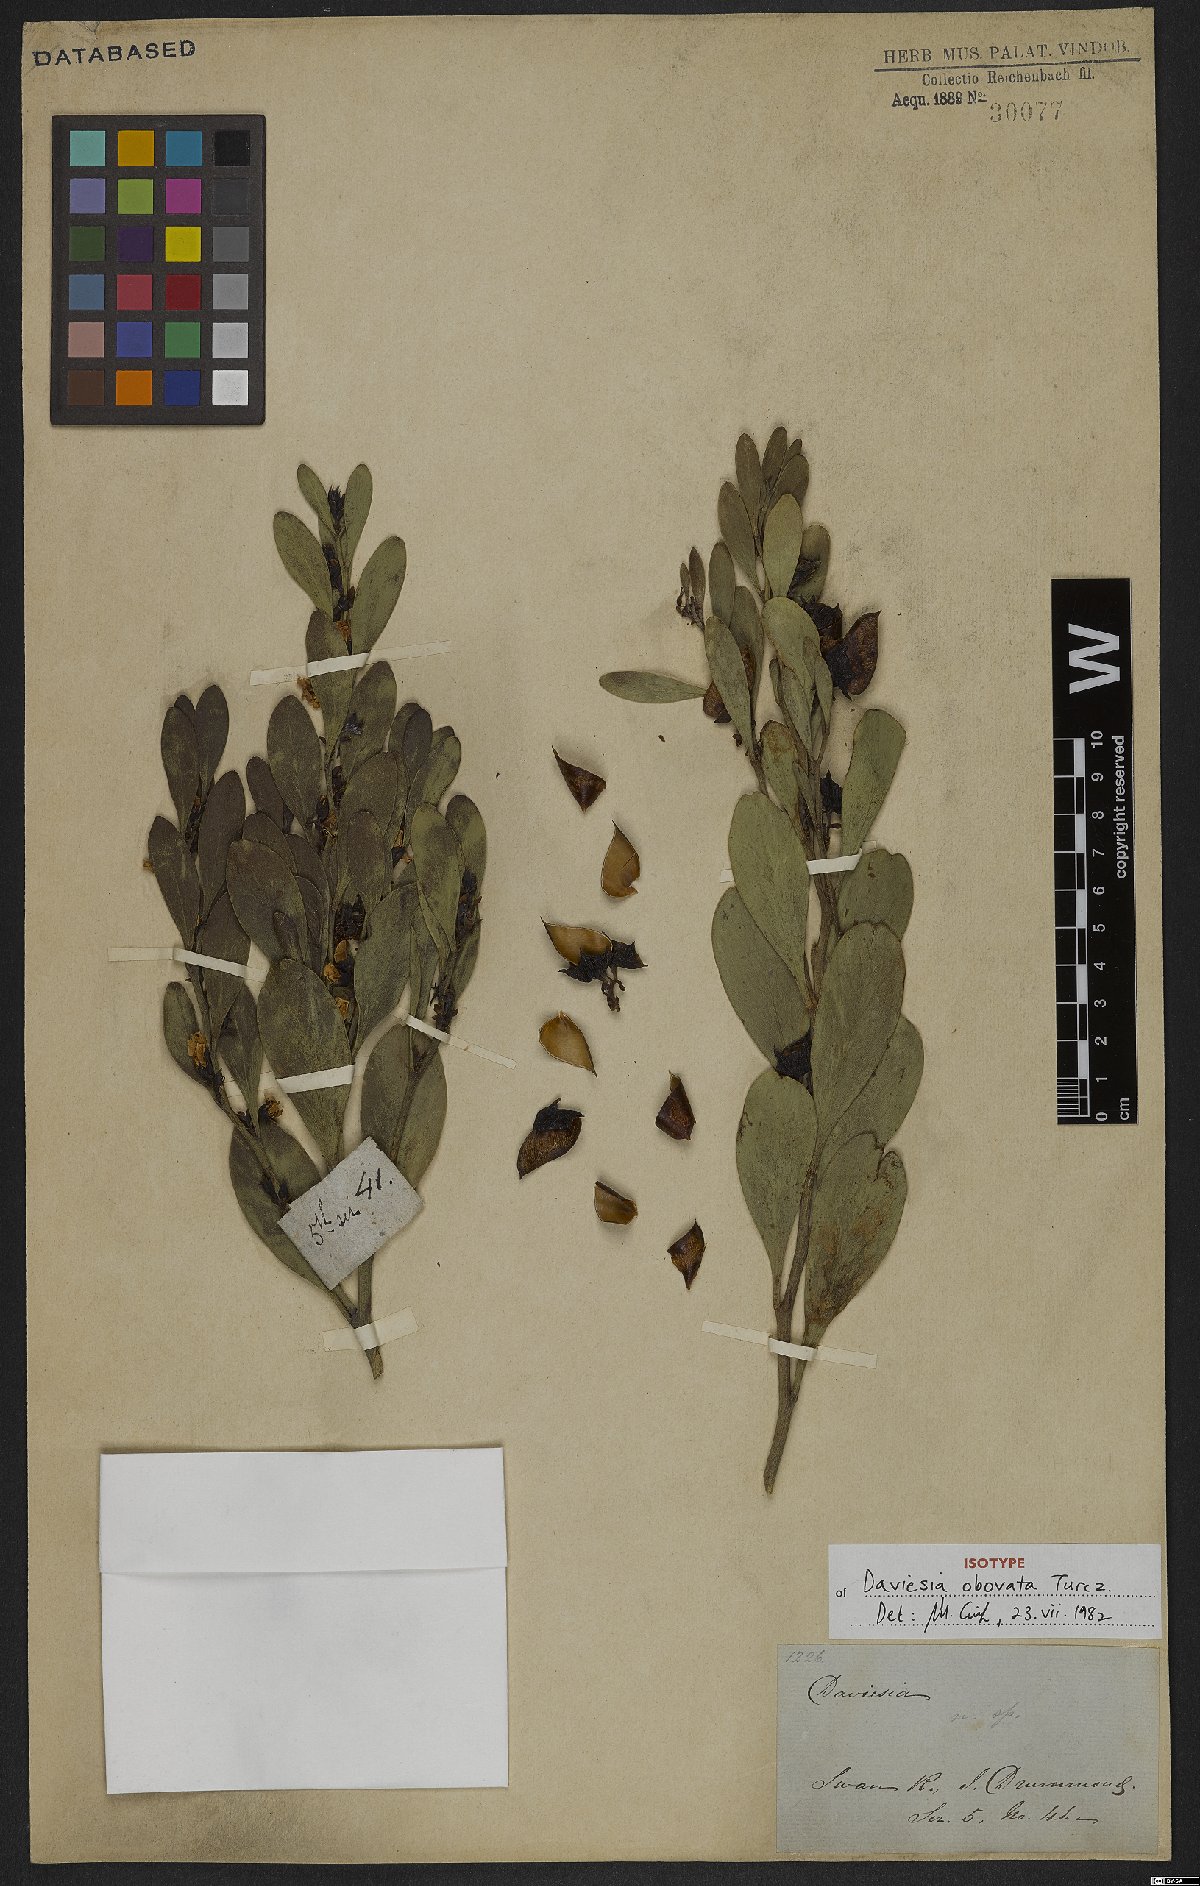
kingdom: Plantae
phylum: Tracheophyta
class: Magnoliopsida
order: Fabales
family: Fabaceae
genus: Daviesia
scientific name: Daviesia obovata
